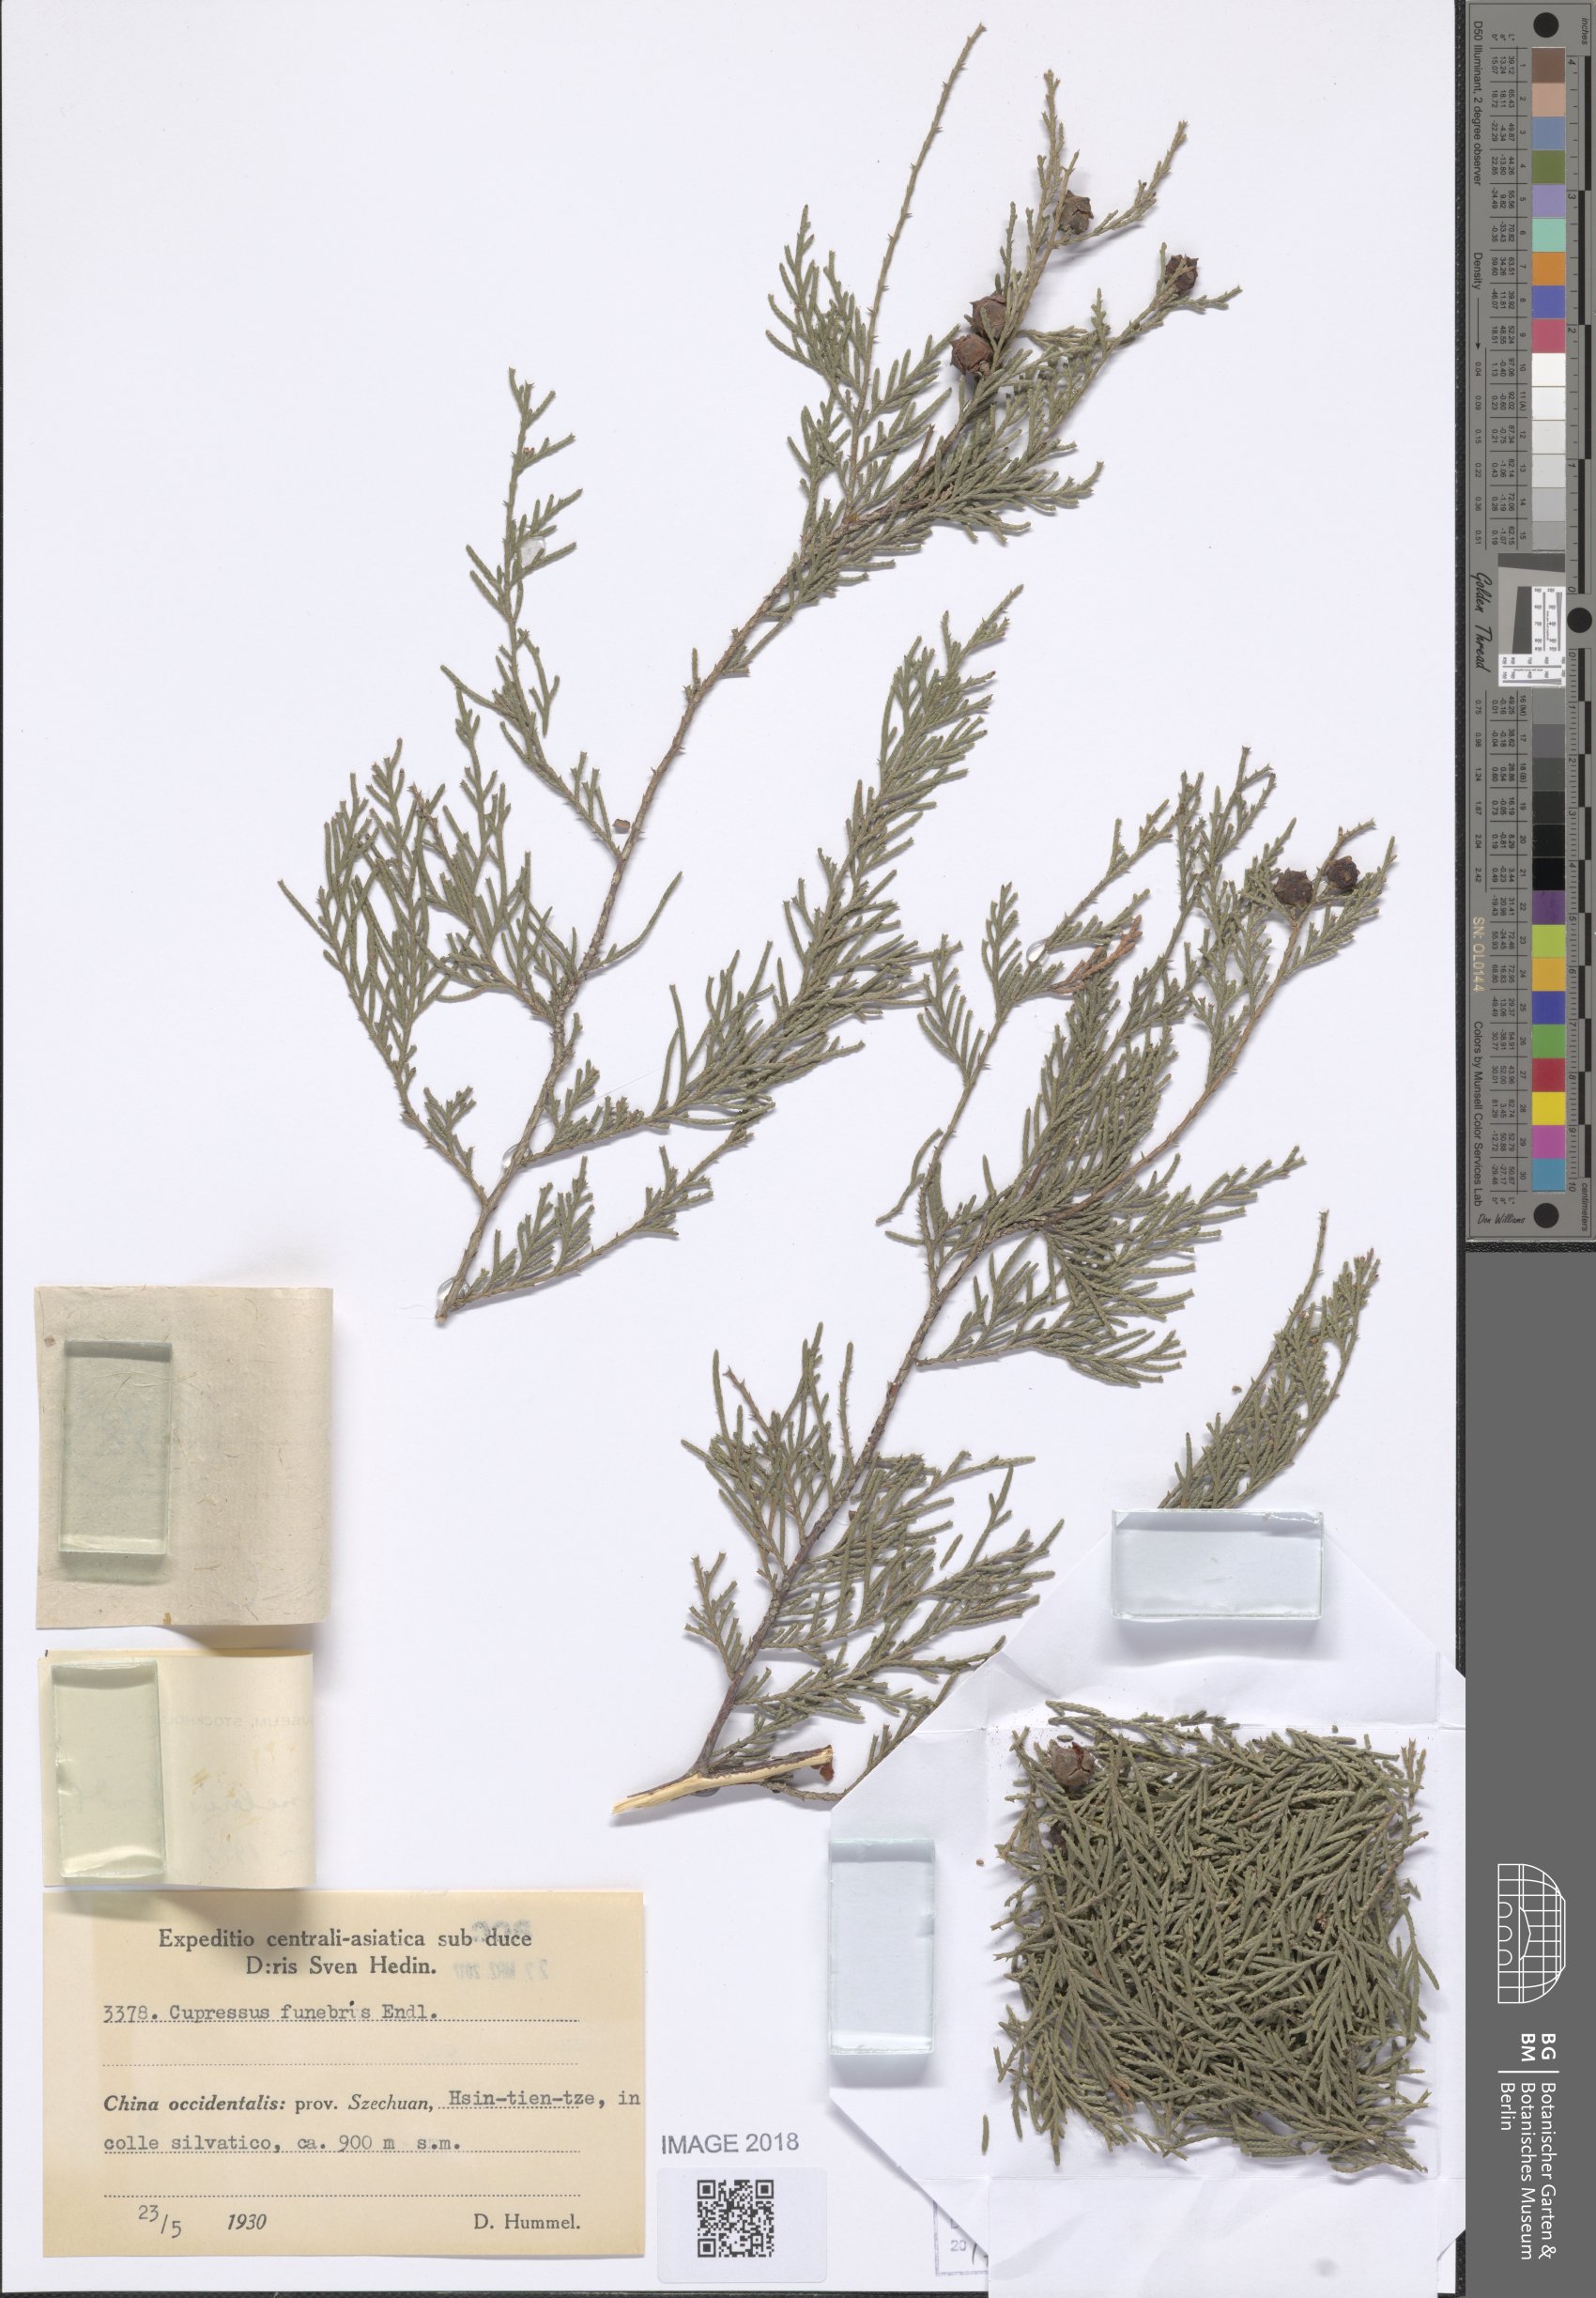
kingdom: Plantae
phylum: Tracheophyta
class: Pinopsida
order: Pinales
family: Cupressaceae
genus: Cupressus
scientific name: Cupressus funebris
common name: Chinese weeping cypress
